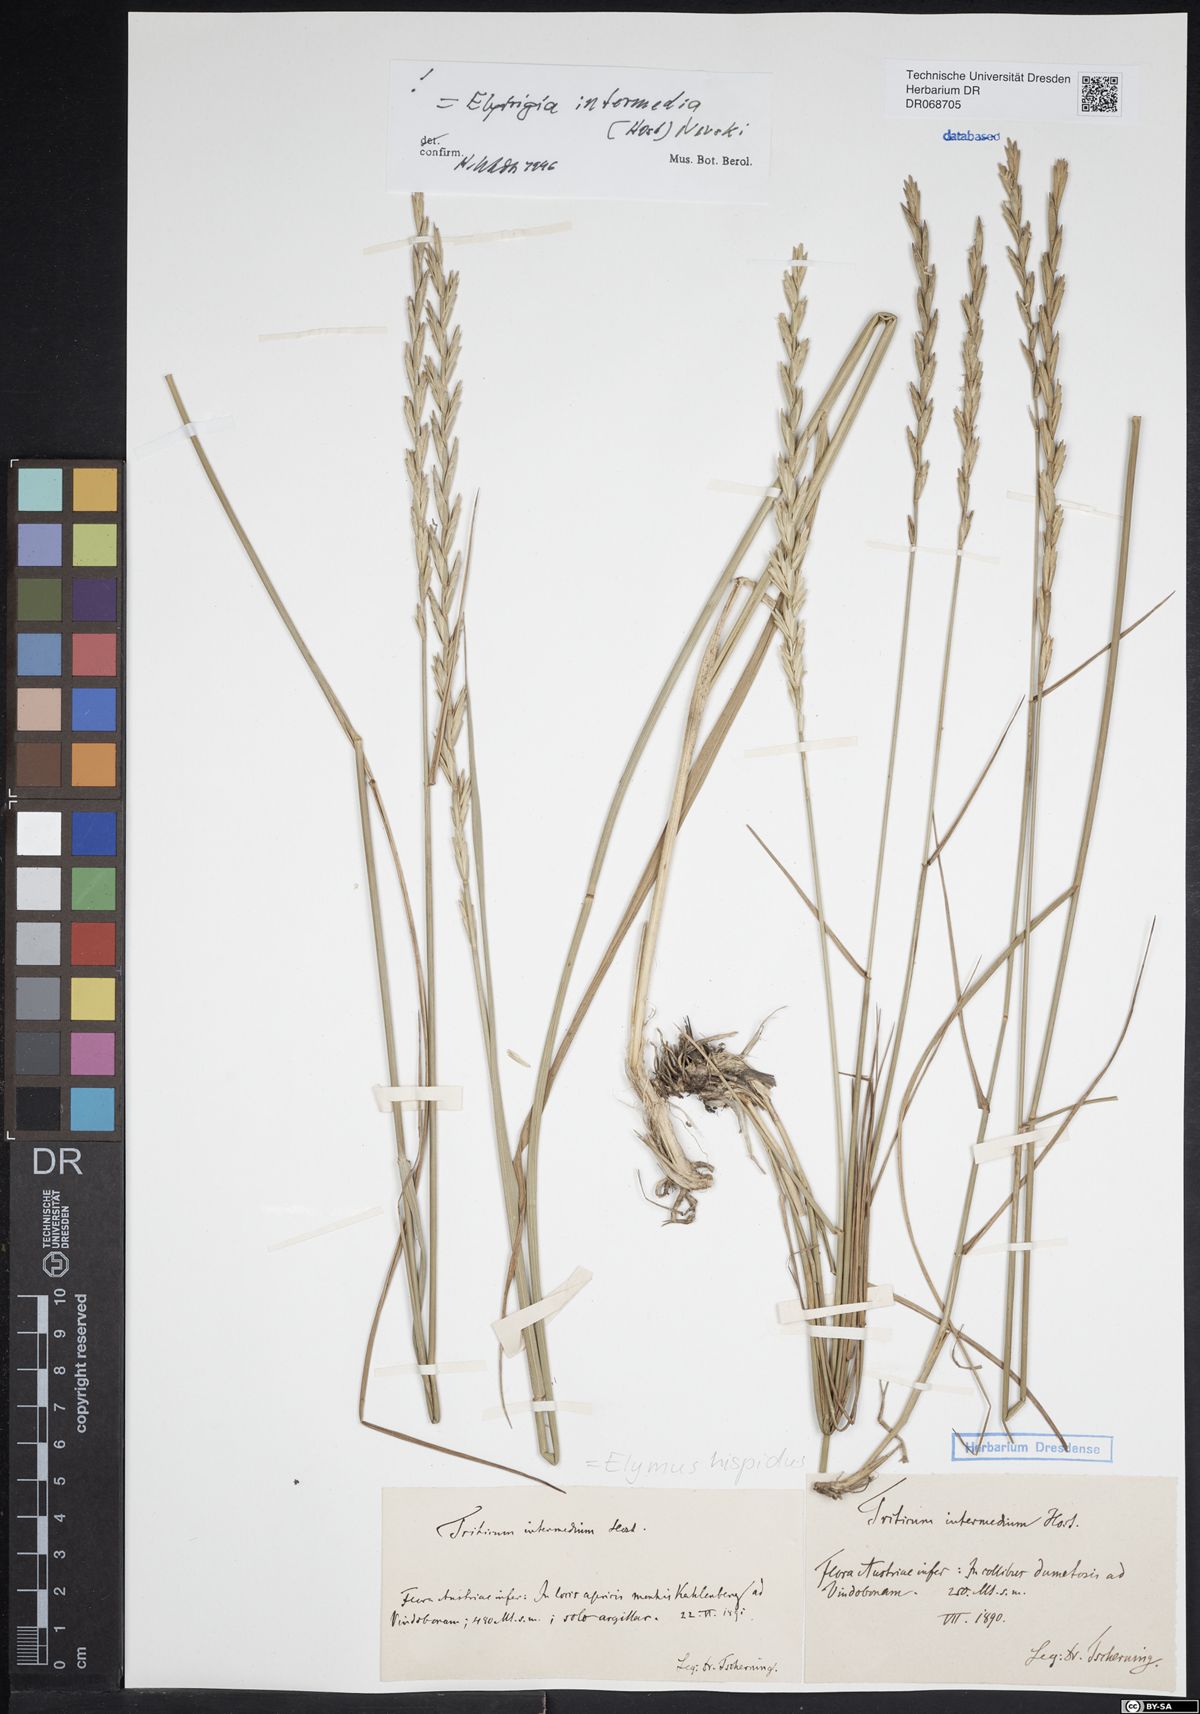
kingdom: Plantae
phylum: Tracheophyta
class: Liliopsida
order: Poales
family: Poaceae
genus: Thinopyrum
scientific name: Thinopyrum intermedium
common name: Intermediate wheatgrass
